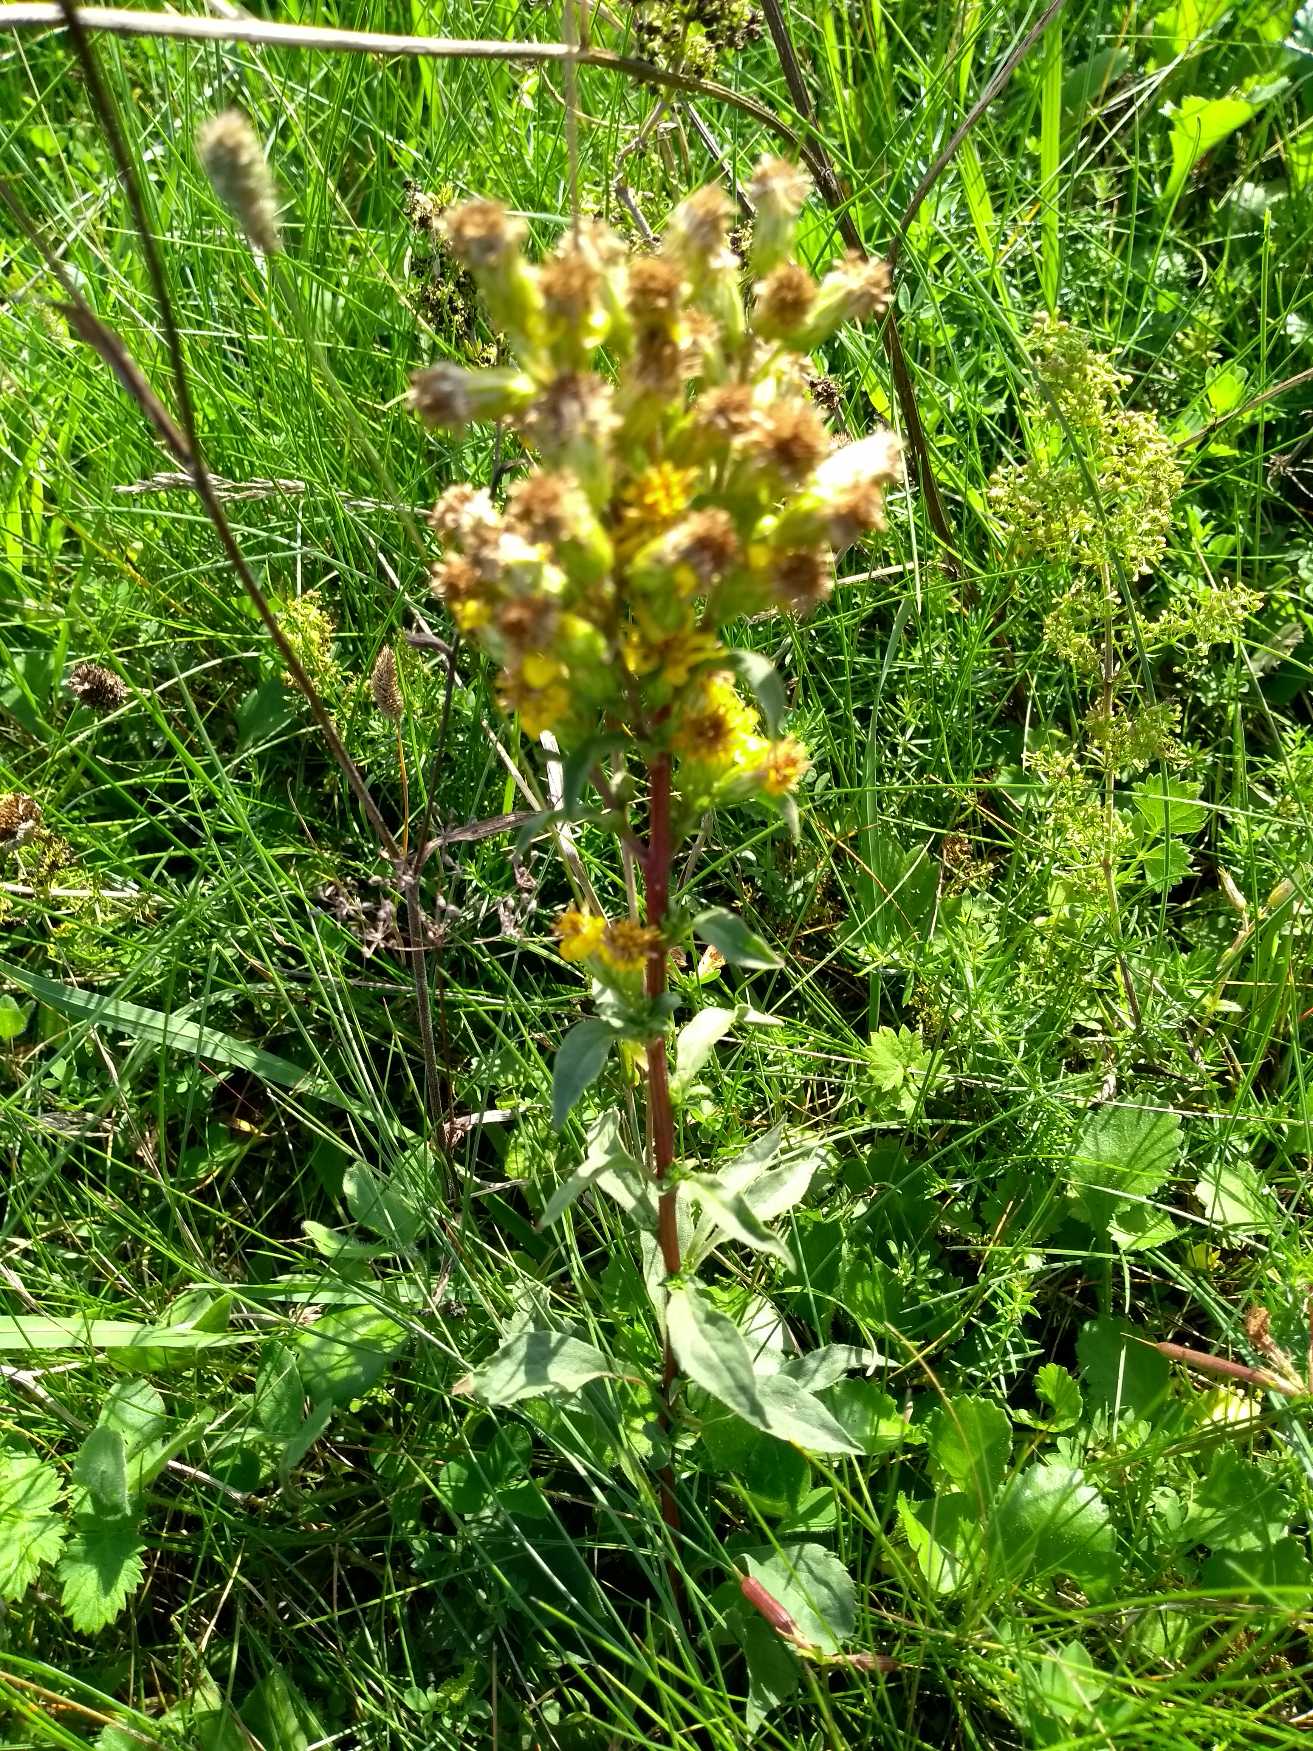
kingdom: Plantae
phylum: Tracheophyta
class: Magnoliopsida
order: Asterales
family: Asteraceae
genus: Solidago
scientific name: Solidago virgaurea
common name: Almindelig gyldenris
